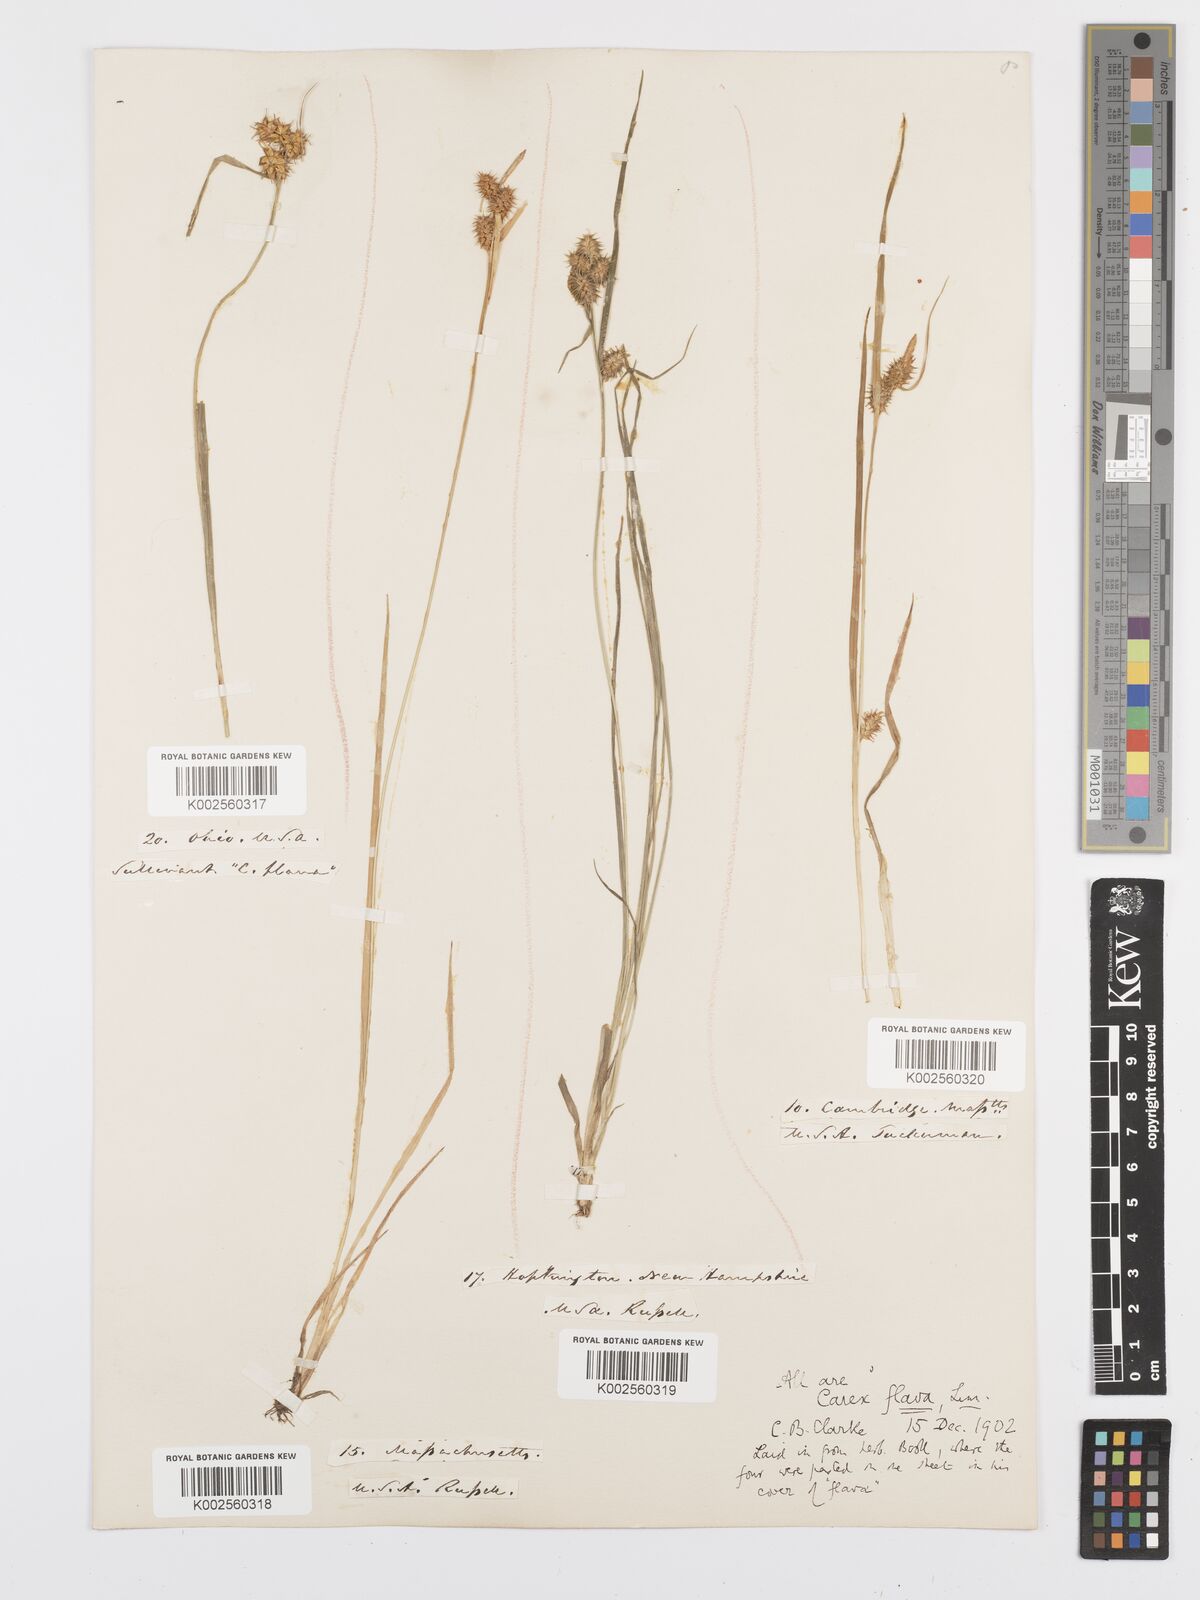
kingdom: Plantae
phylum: Tracheophyta
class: Liliopsida
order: Poales
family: Cyperaceae
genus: Carex
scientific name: Carex flava
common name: Large yellow-sedge
